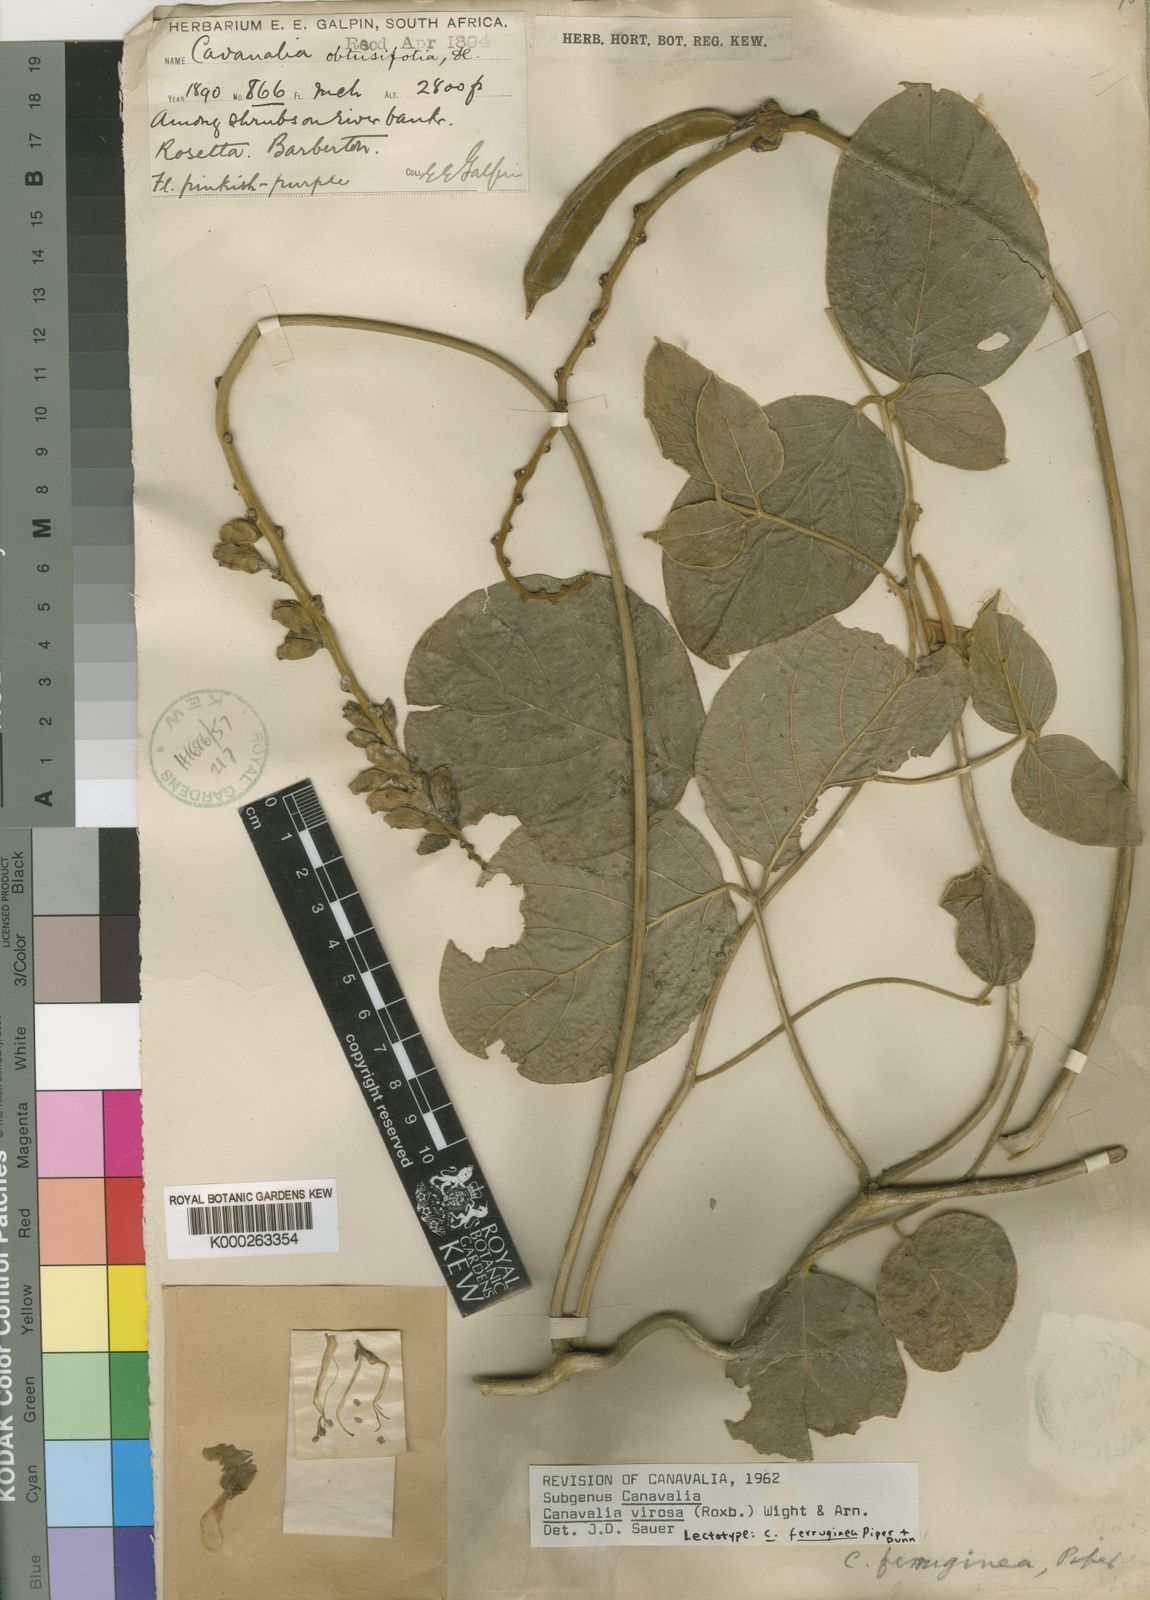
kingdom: Plantae
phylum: Tracheophyta
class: Magnoliopsida
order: Fabales
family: Fabaceae
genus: Canavalia
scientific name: Canavalia cathartica
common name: Maunaloa
